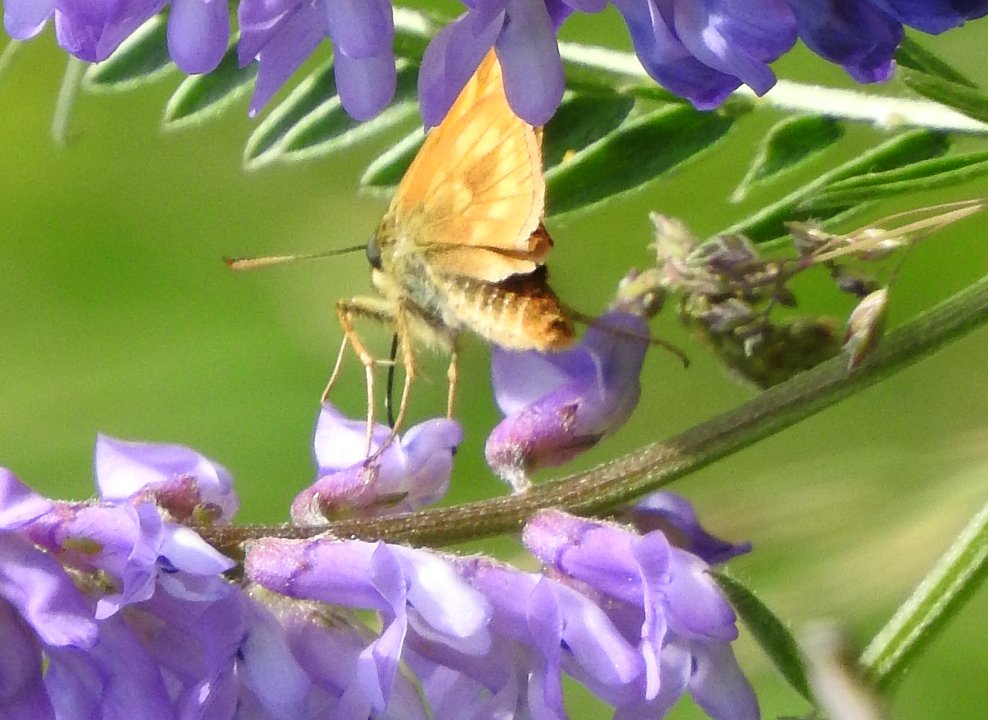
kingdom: Animalia
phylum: Arthropoda
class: Insecta
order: Lepidoptera
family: Hesperiidae
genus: Polites
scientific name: Polites
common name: Long Dash Skipper
